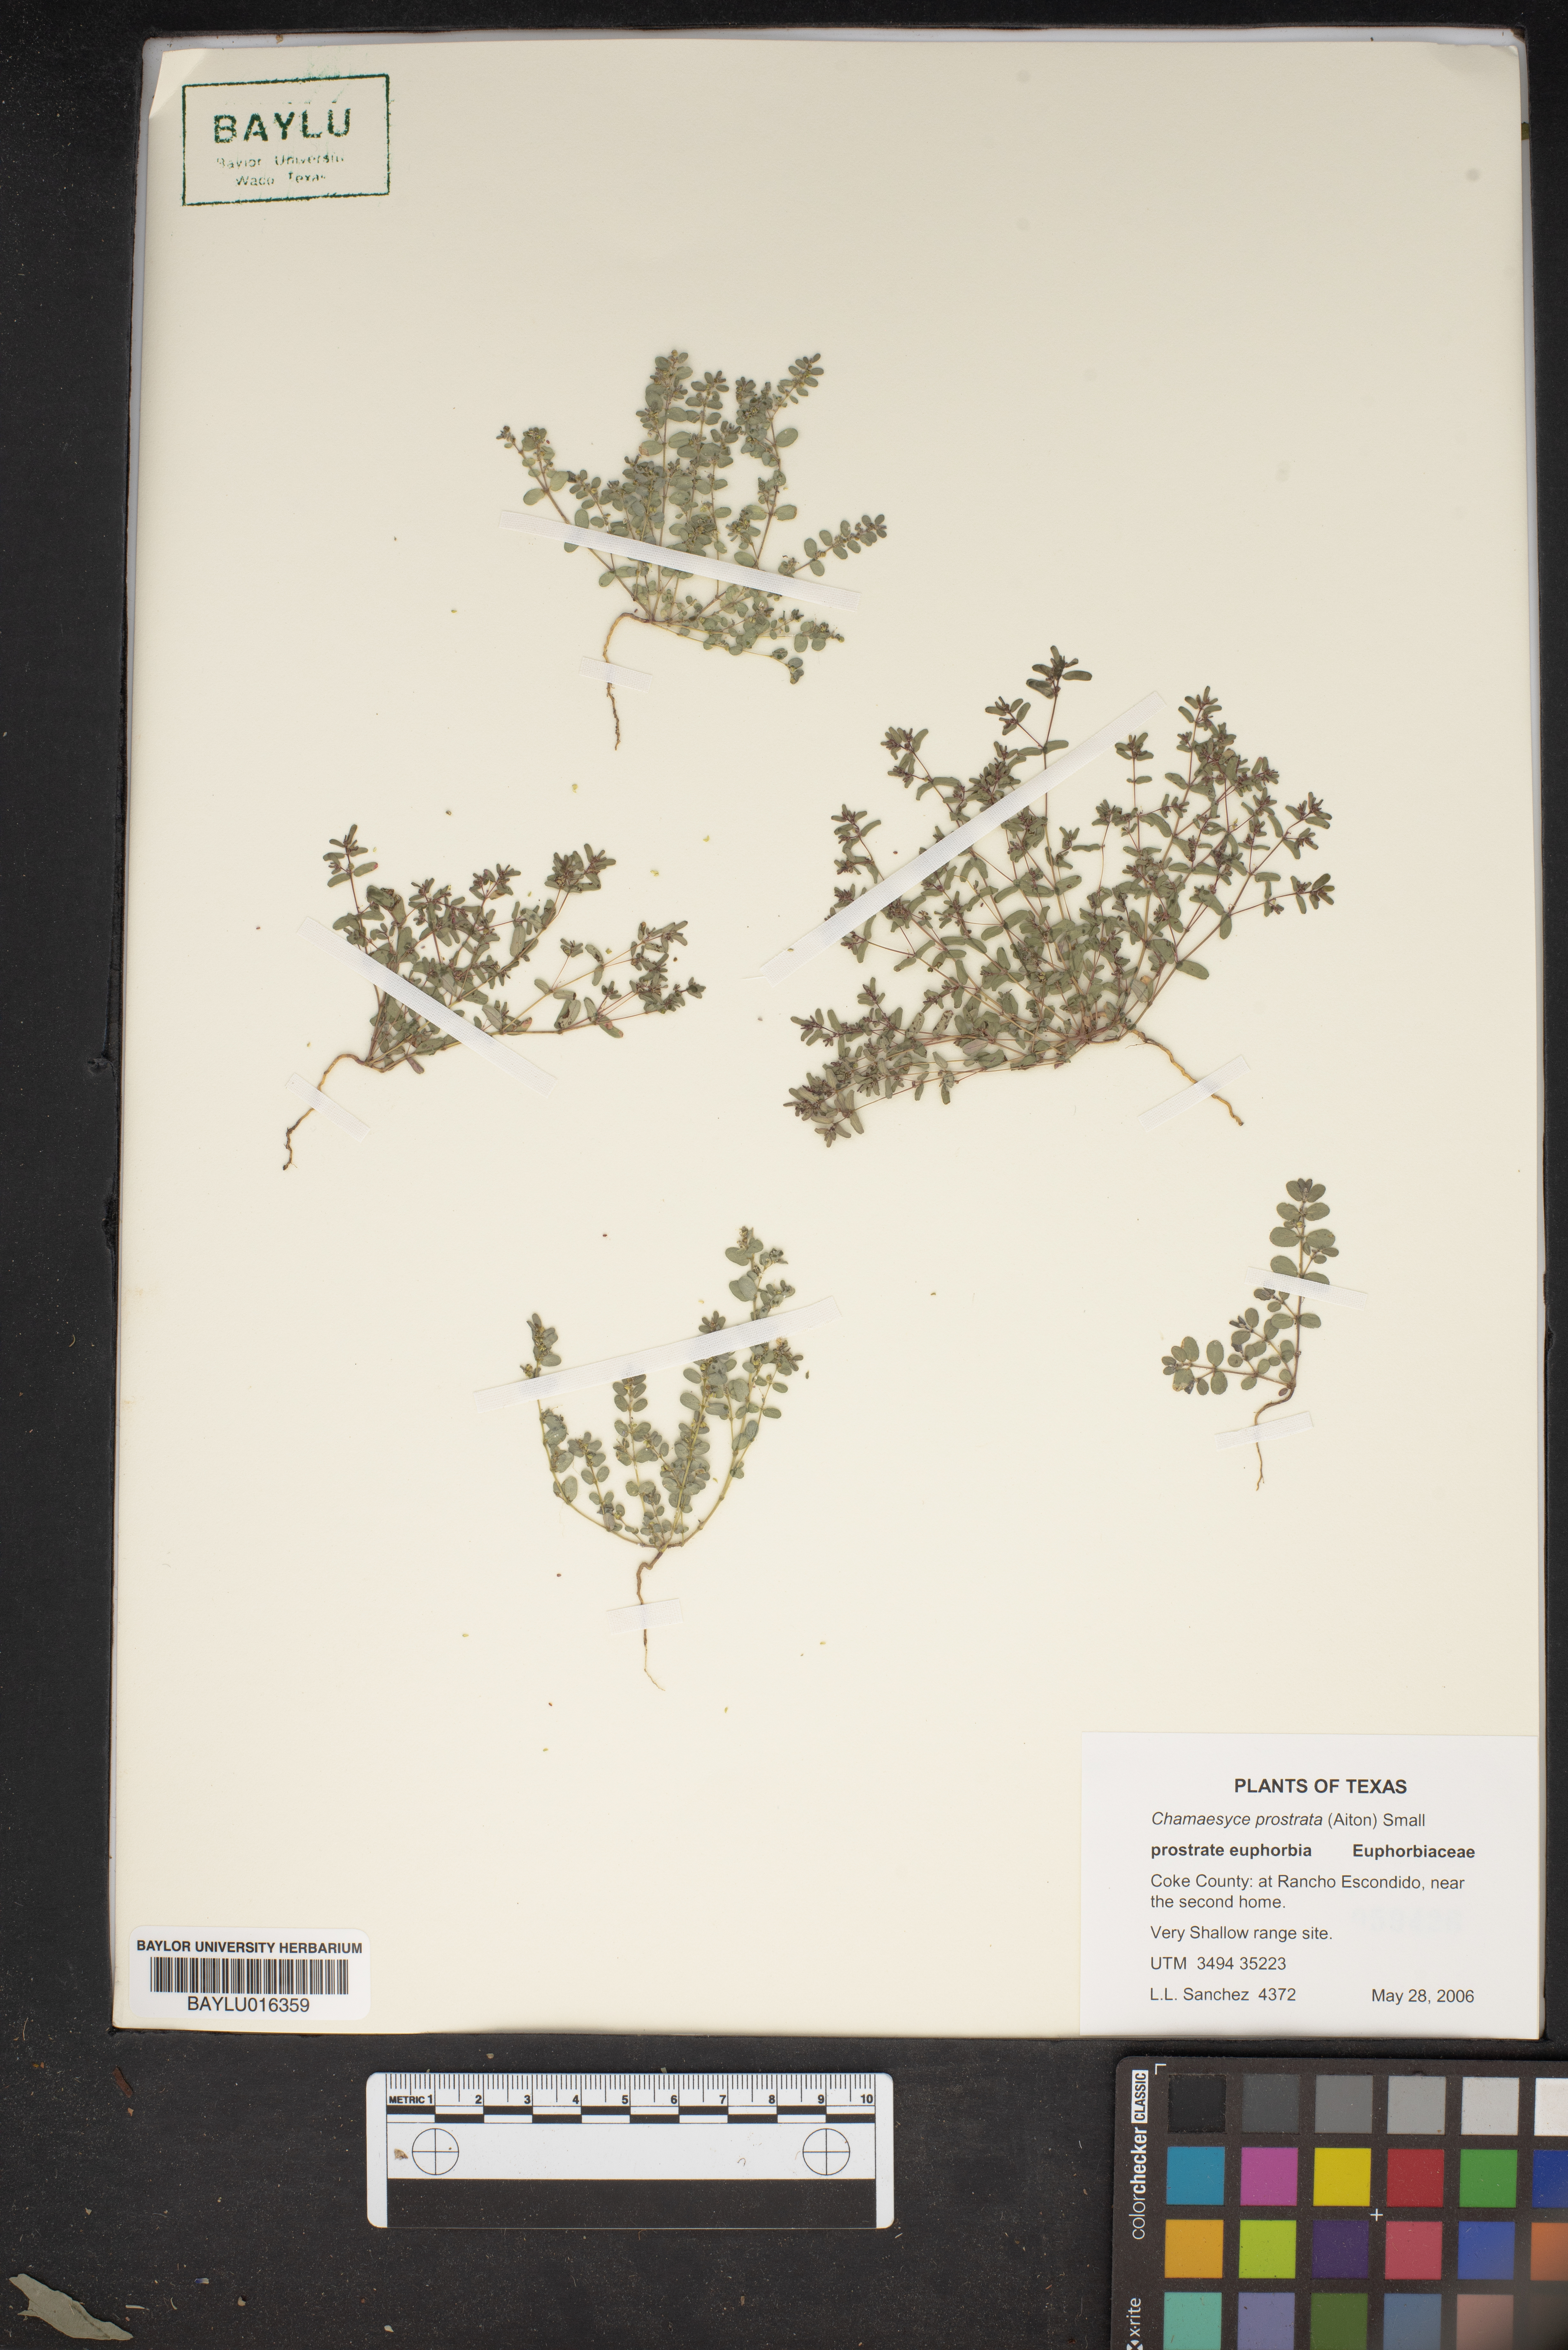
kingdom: Plantae
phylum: Tracheophyta
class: Magnoliopsida
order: Malpighiales
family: Euphorbiaceae
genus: Euphorbia
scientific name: Euphorbia prostrata
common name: Prostrate sandmat
